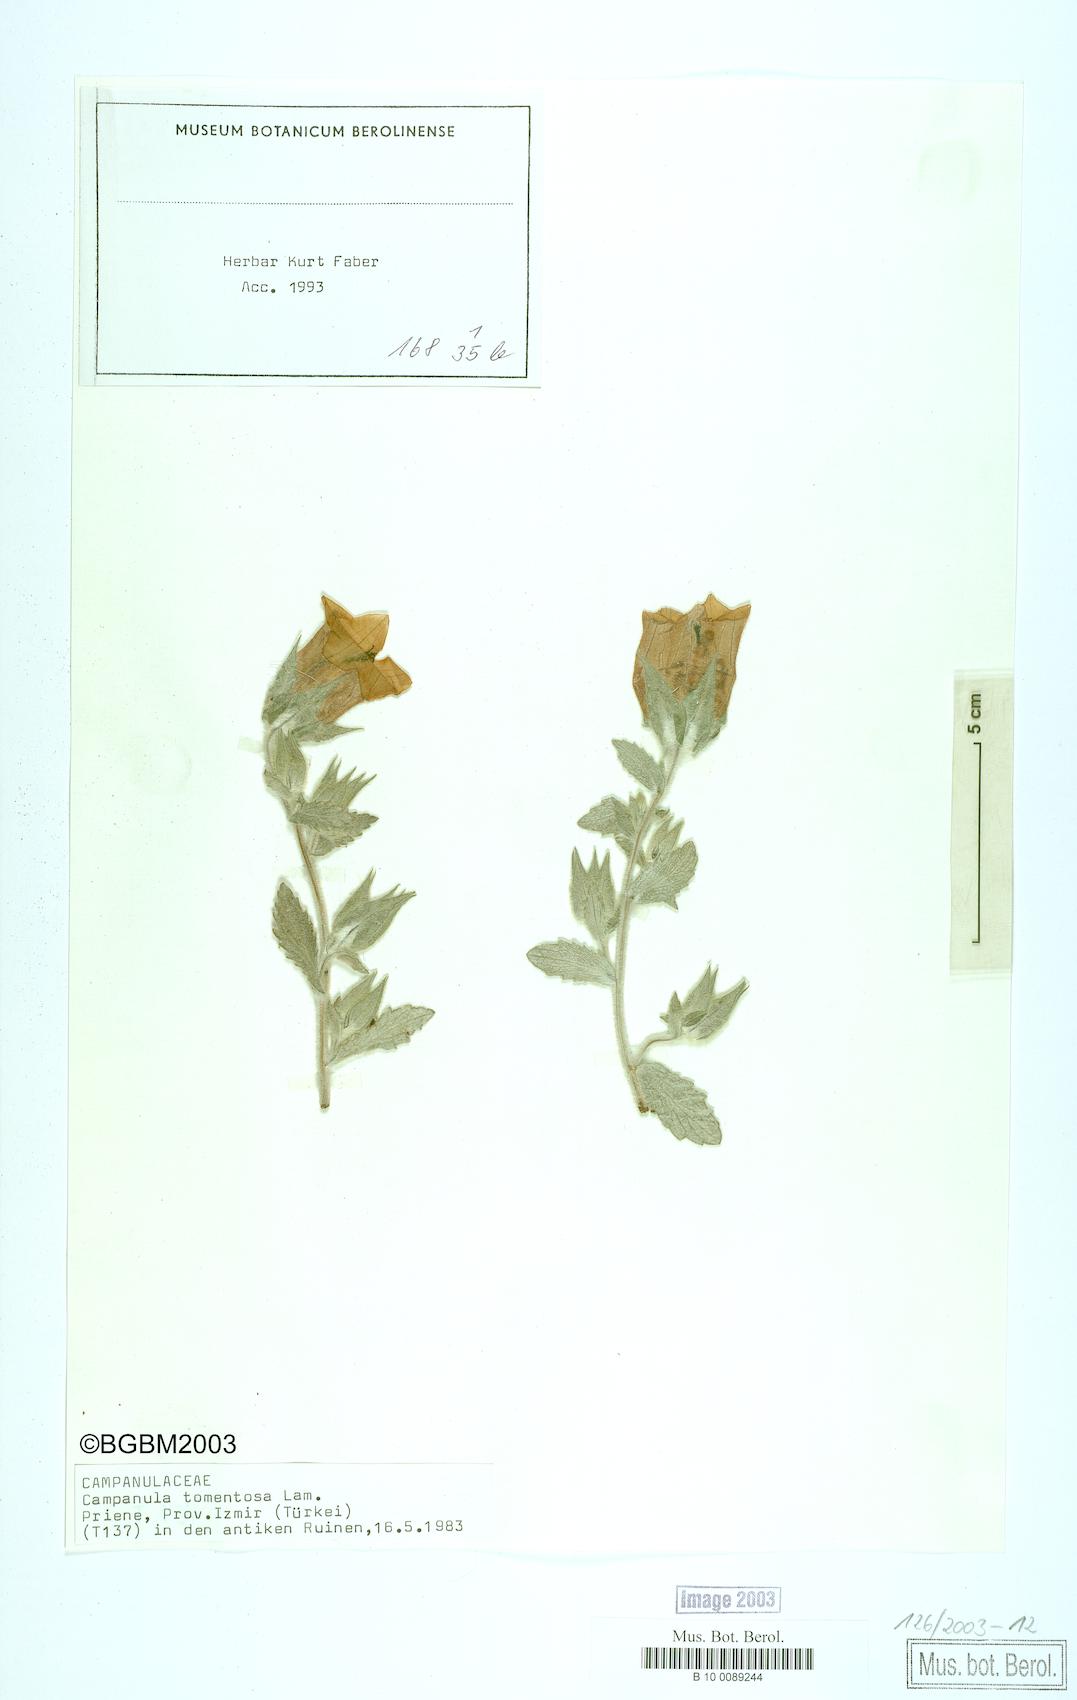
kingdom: Plantae
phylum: Tracheophyta
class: Magnoliopsida
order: Asterales
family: Campanulaceae
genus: Campanula
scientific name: Campanula tomentosa
